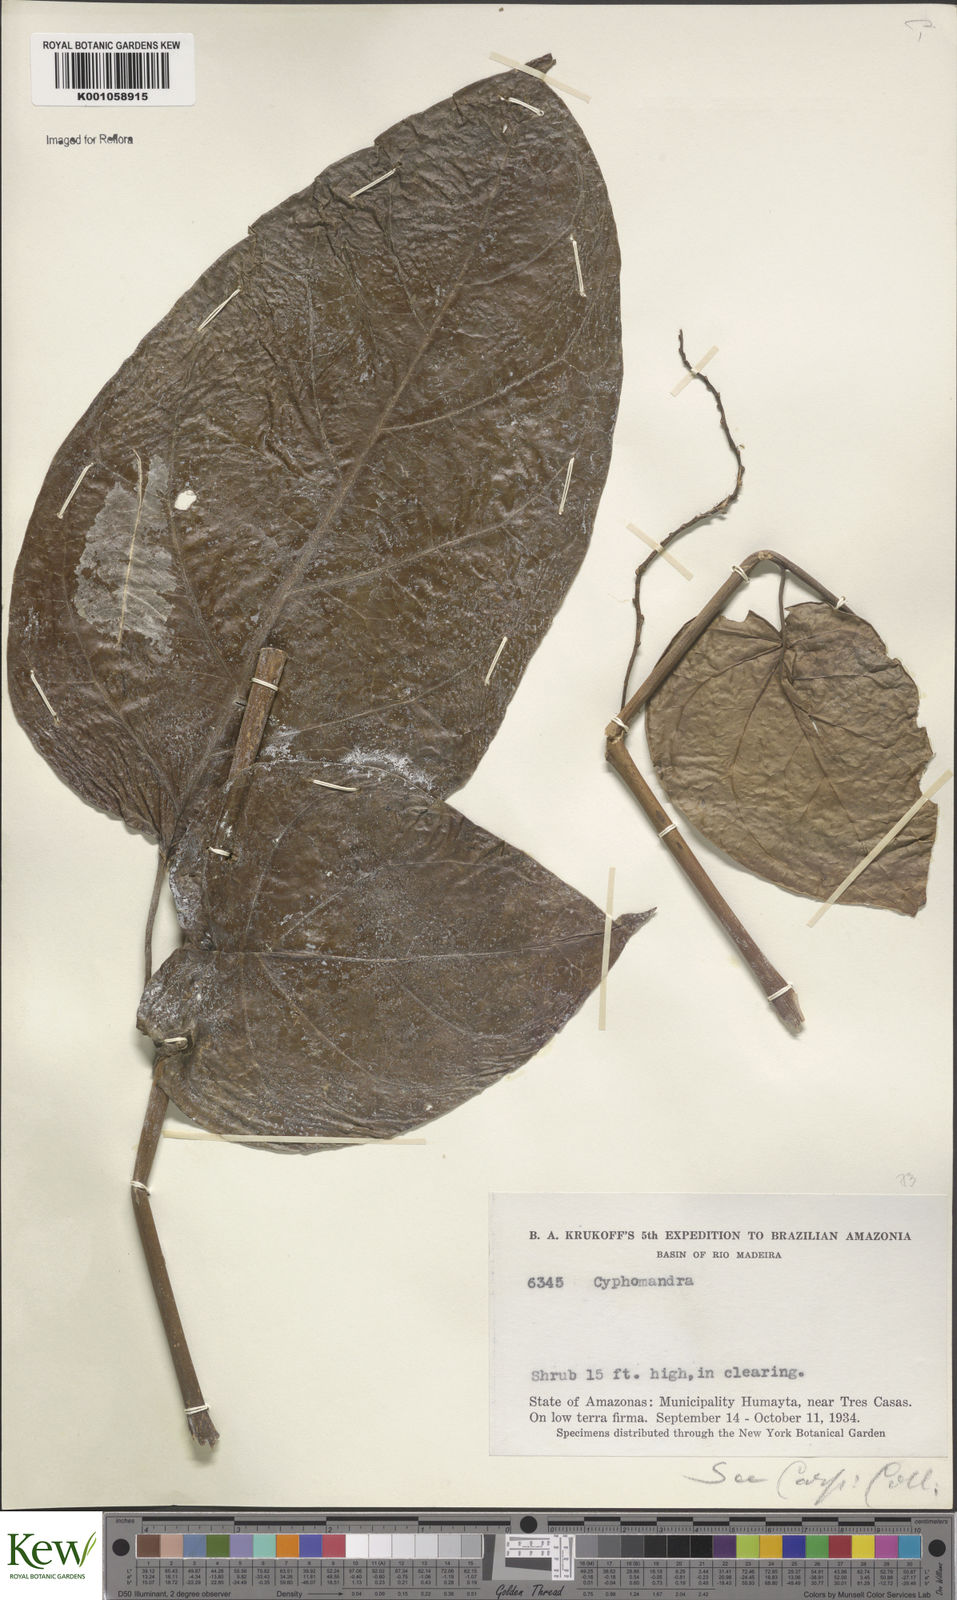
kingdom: Plantae
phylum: Tracheophyta
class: Magnoliopsida
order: Solanales
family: Solanaceae
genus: Solanum
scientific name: Solanum endopogon
